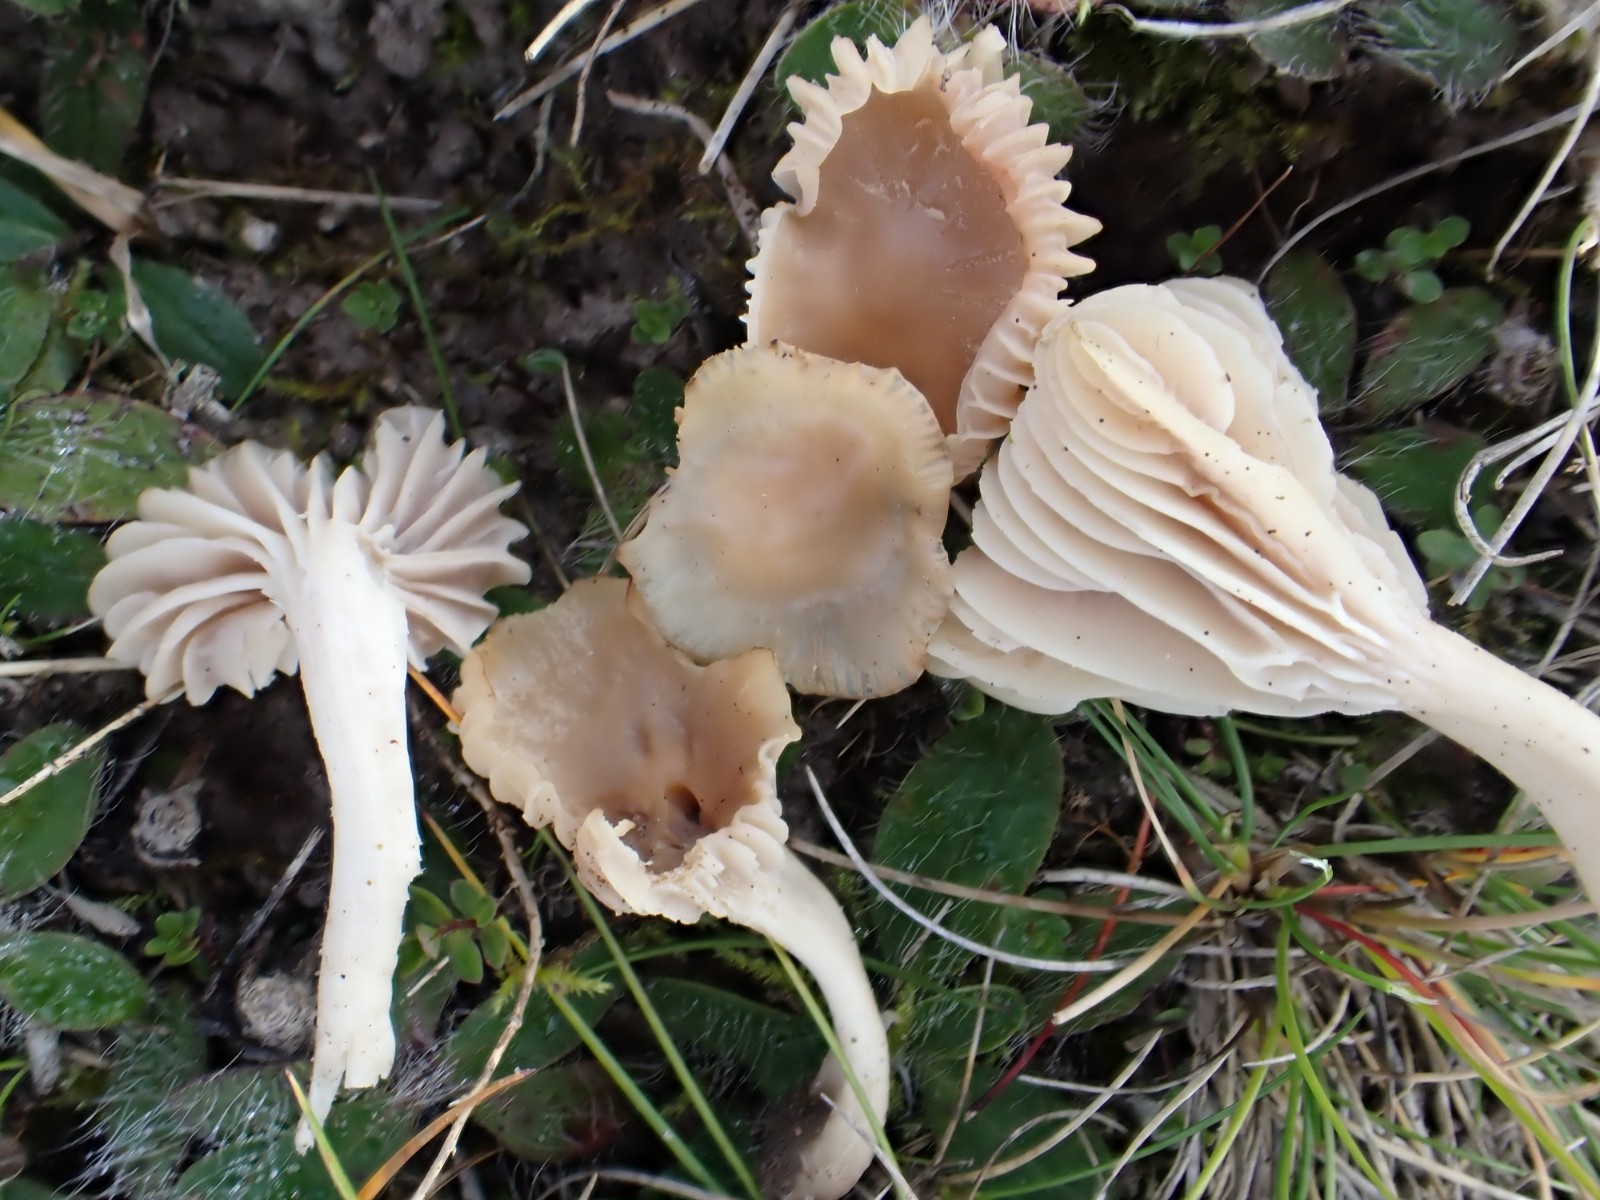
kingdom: Fungi
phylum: Basidiomycota
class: Agaricomycetes
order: Agaricales
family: Hygrophoraceae
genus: Cuphophyllus
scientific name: Cuphophyllus colemannianus
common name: rødbrun vokshat
